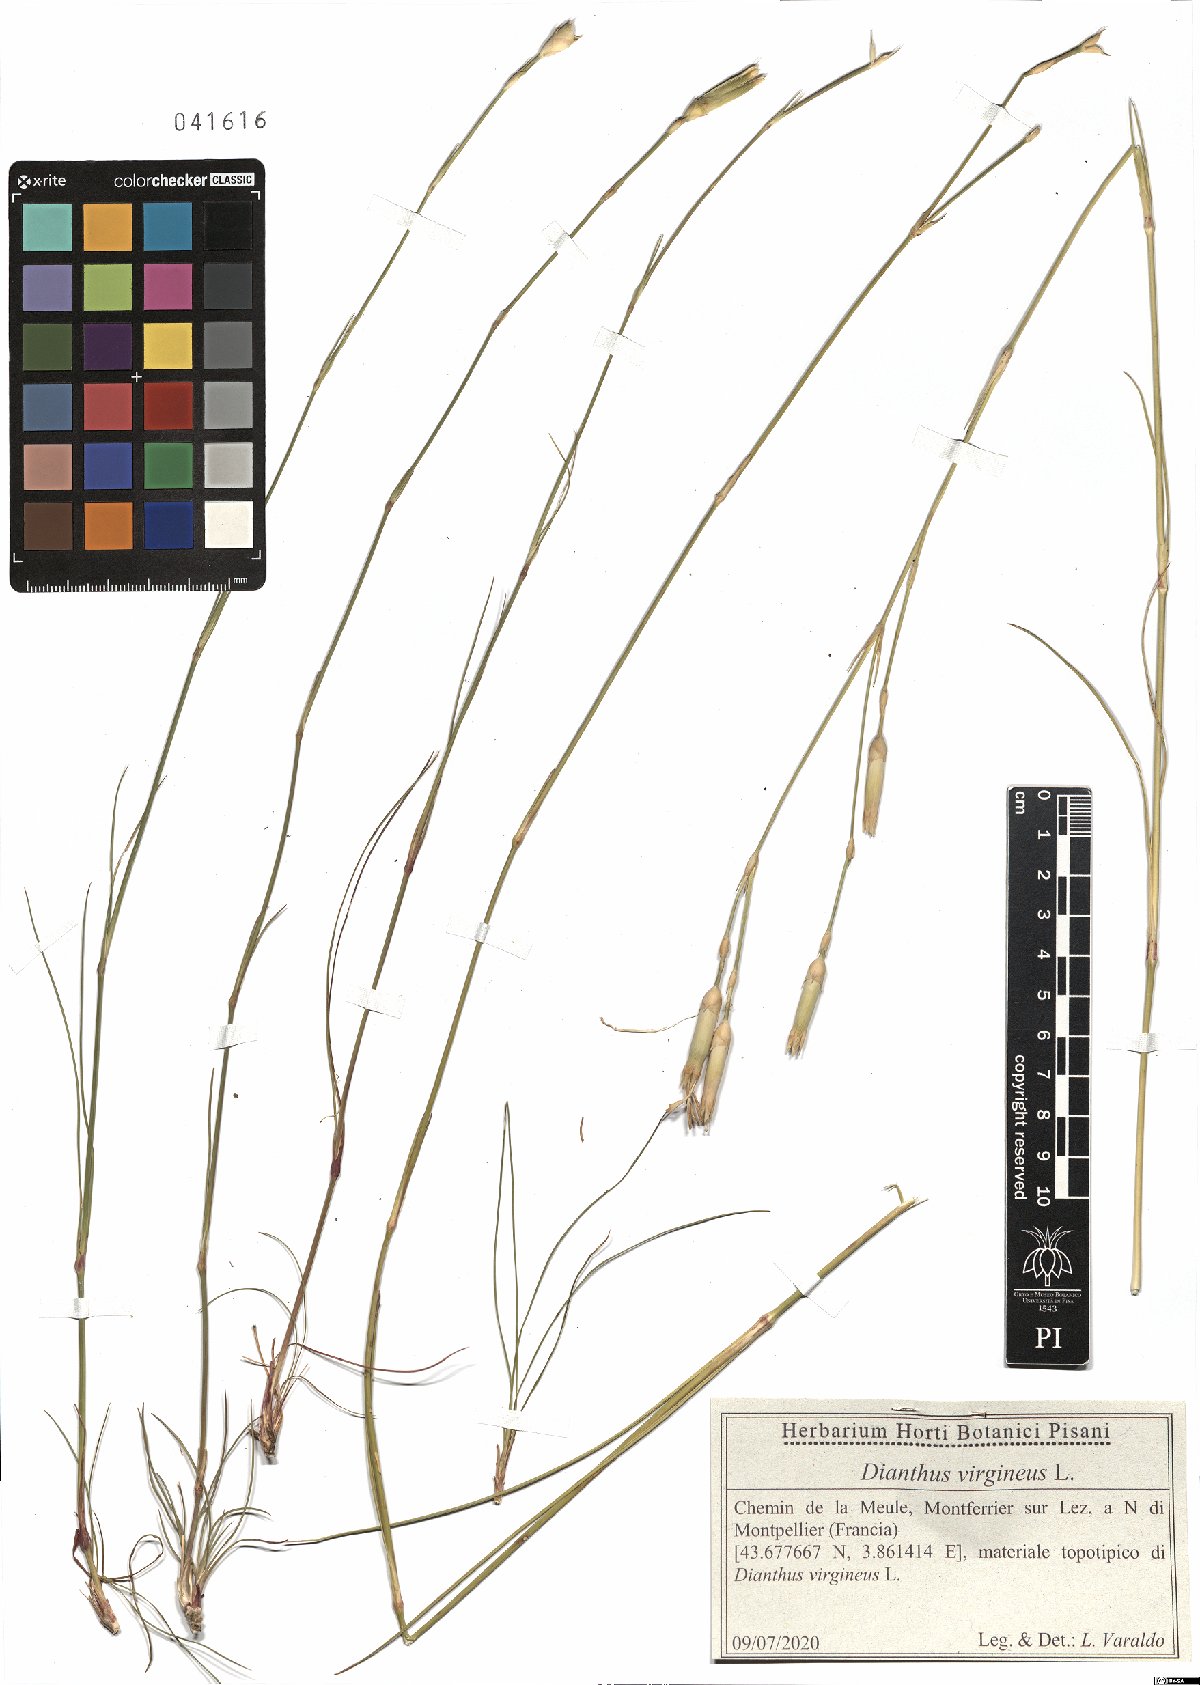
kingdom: Plantae
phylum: Tracheophyta
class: Magnoliopsida
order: Caryophyllales
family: Caryophyllaceae
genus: Dianthus
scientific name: Dianthus virgineus
